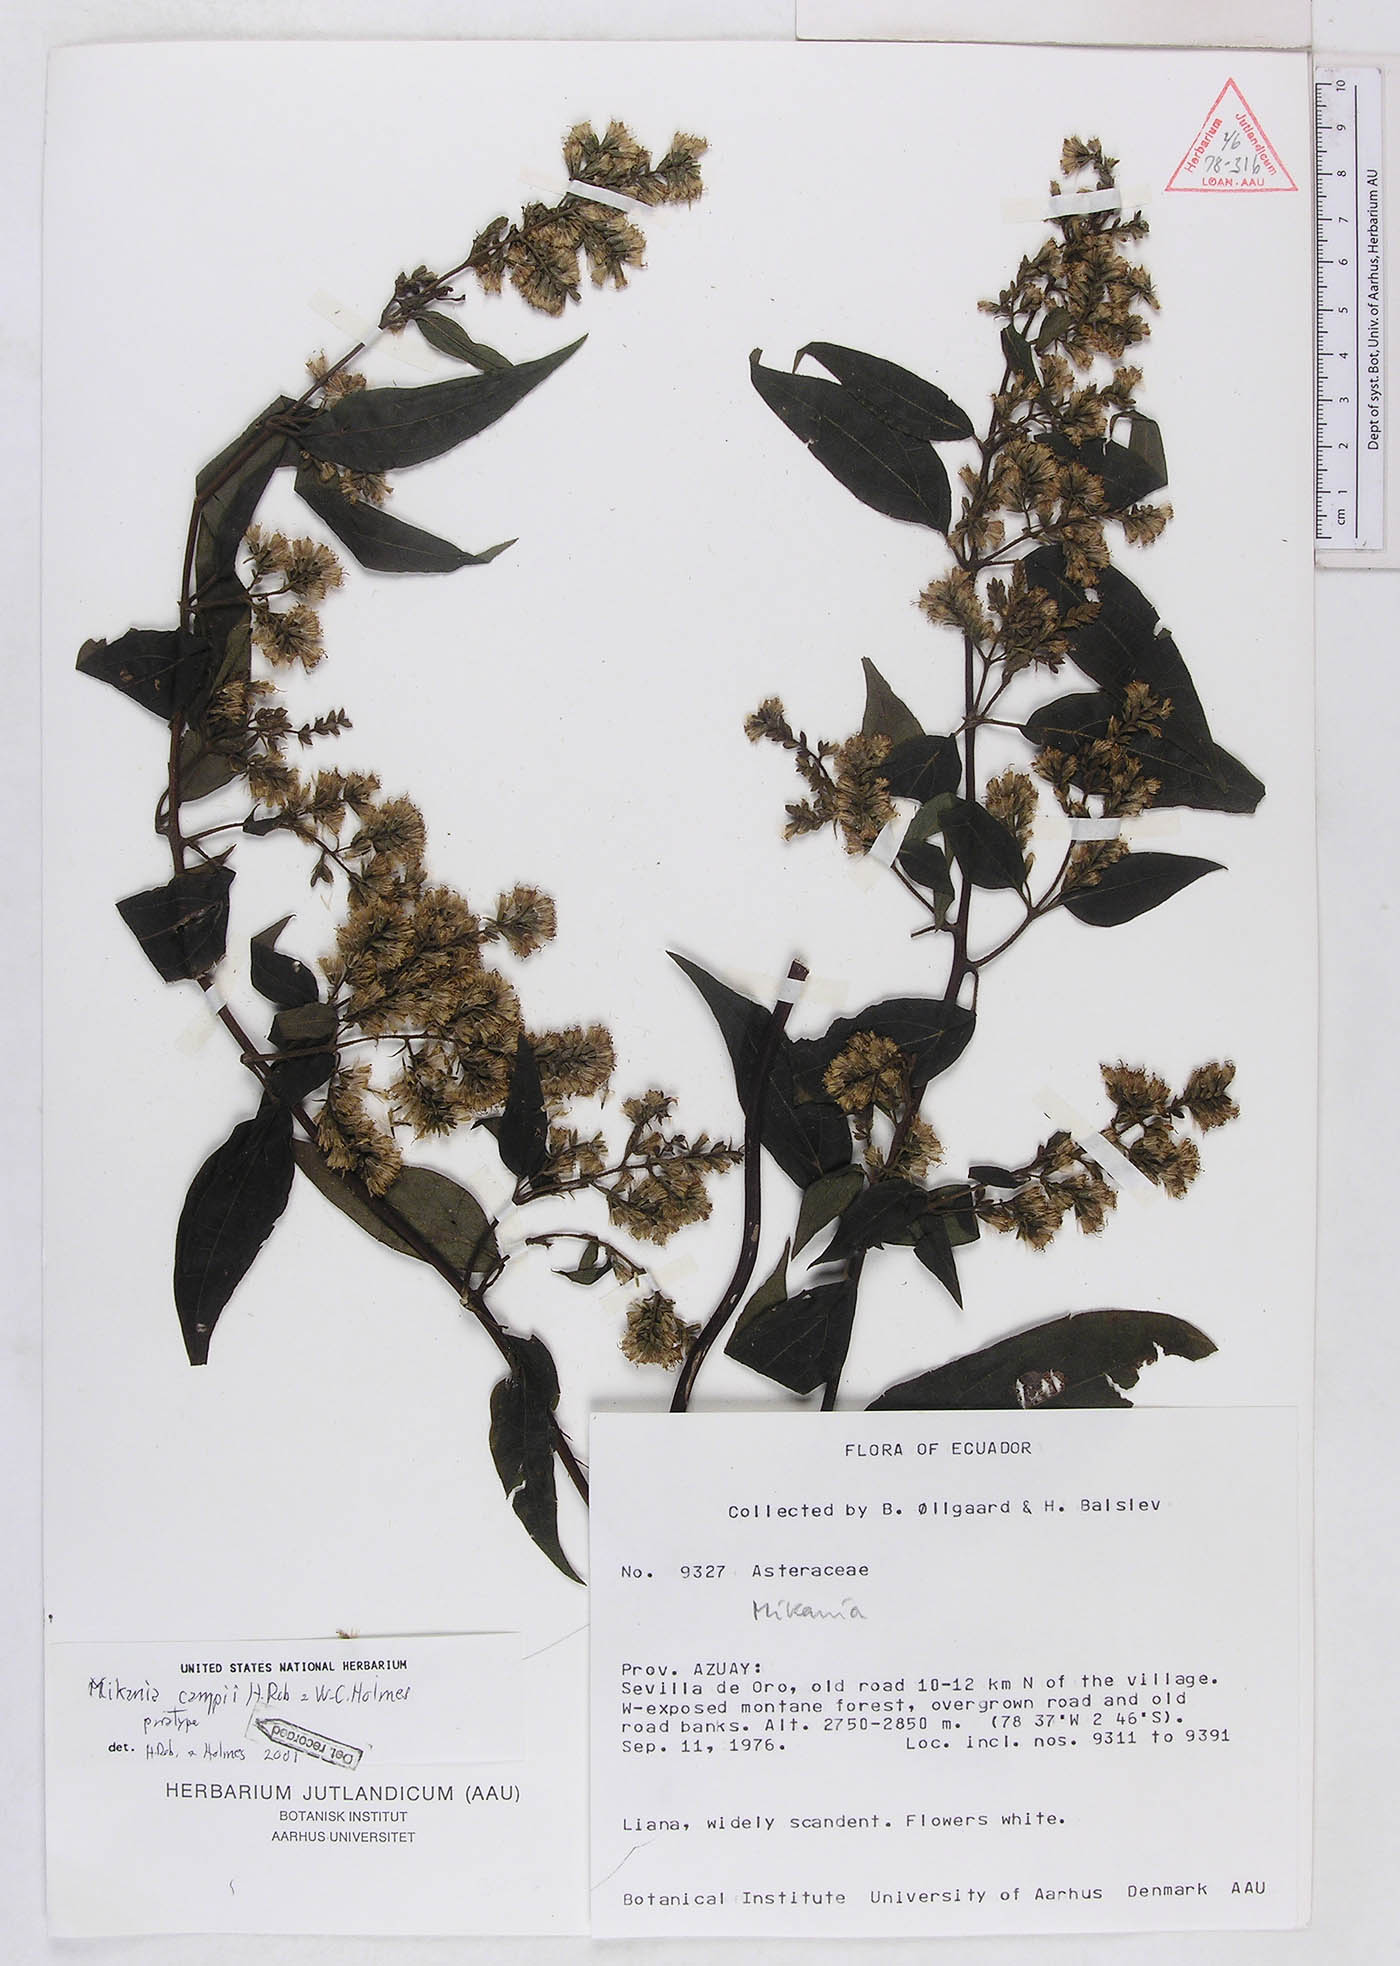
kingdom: Plantae
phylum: Tracheophyta
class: Magnoliopsida
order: Asterales
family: Asteraceae
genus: Mikania
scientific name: Mikania campii
